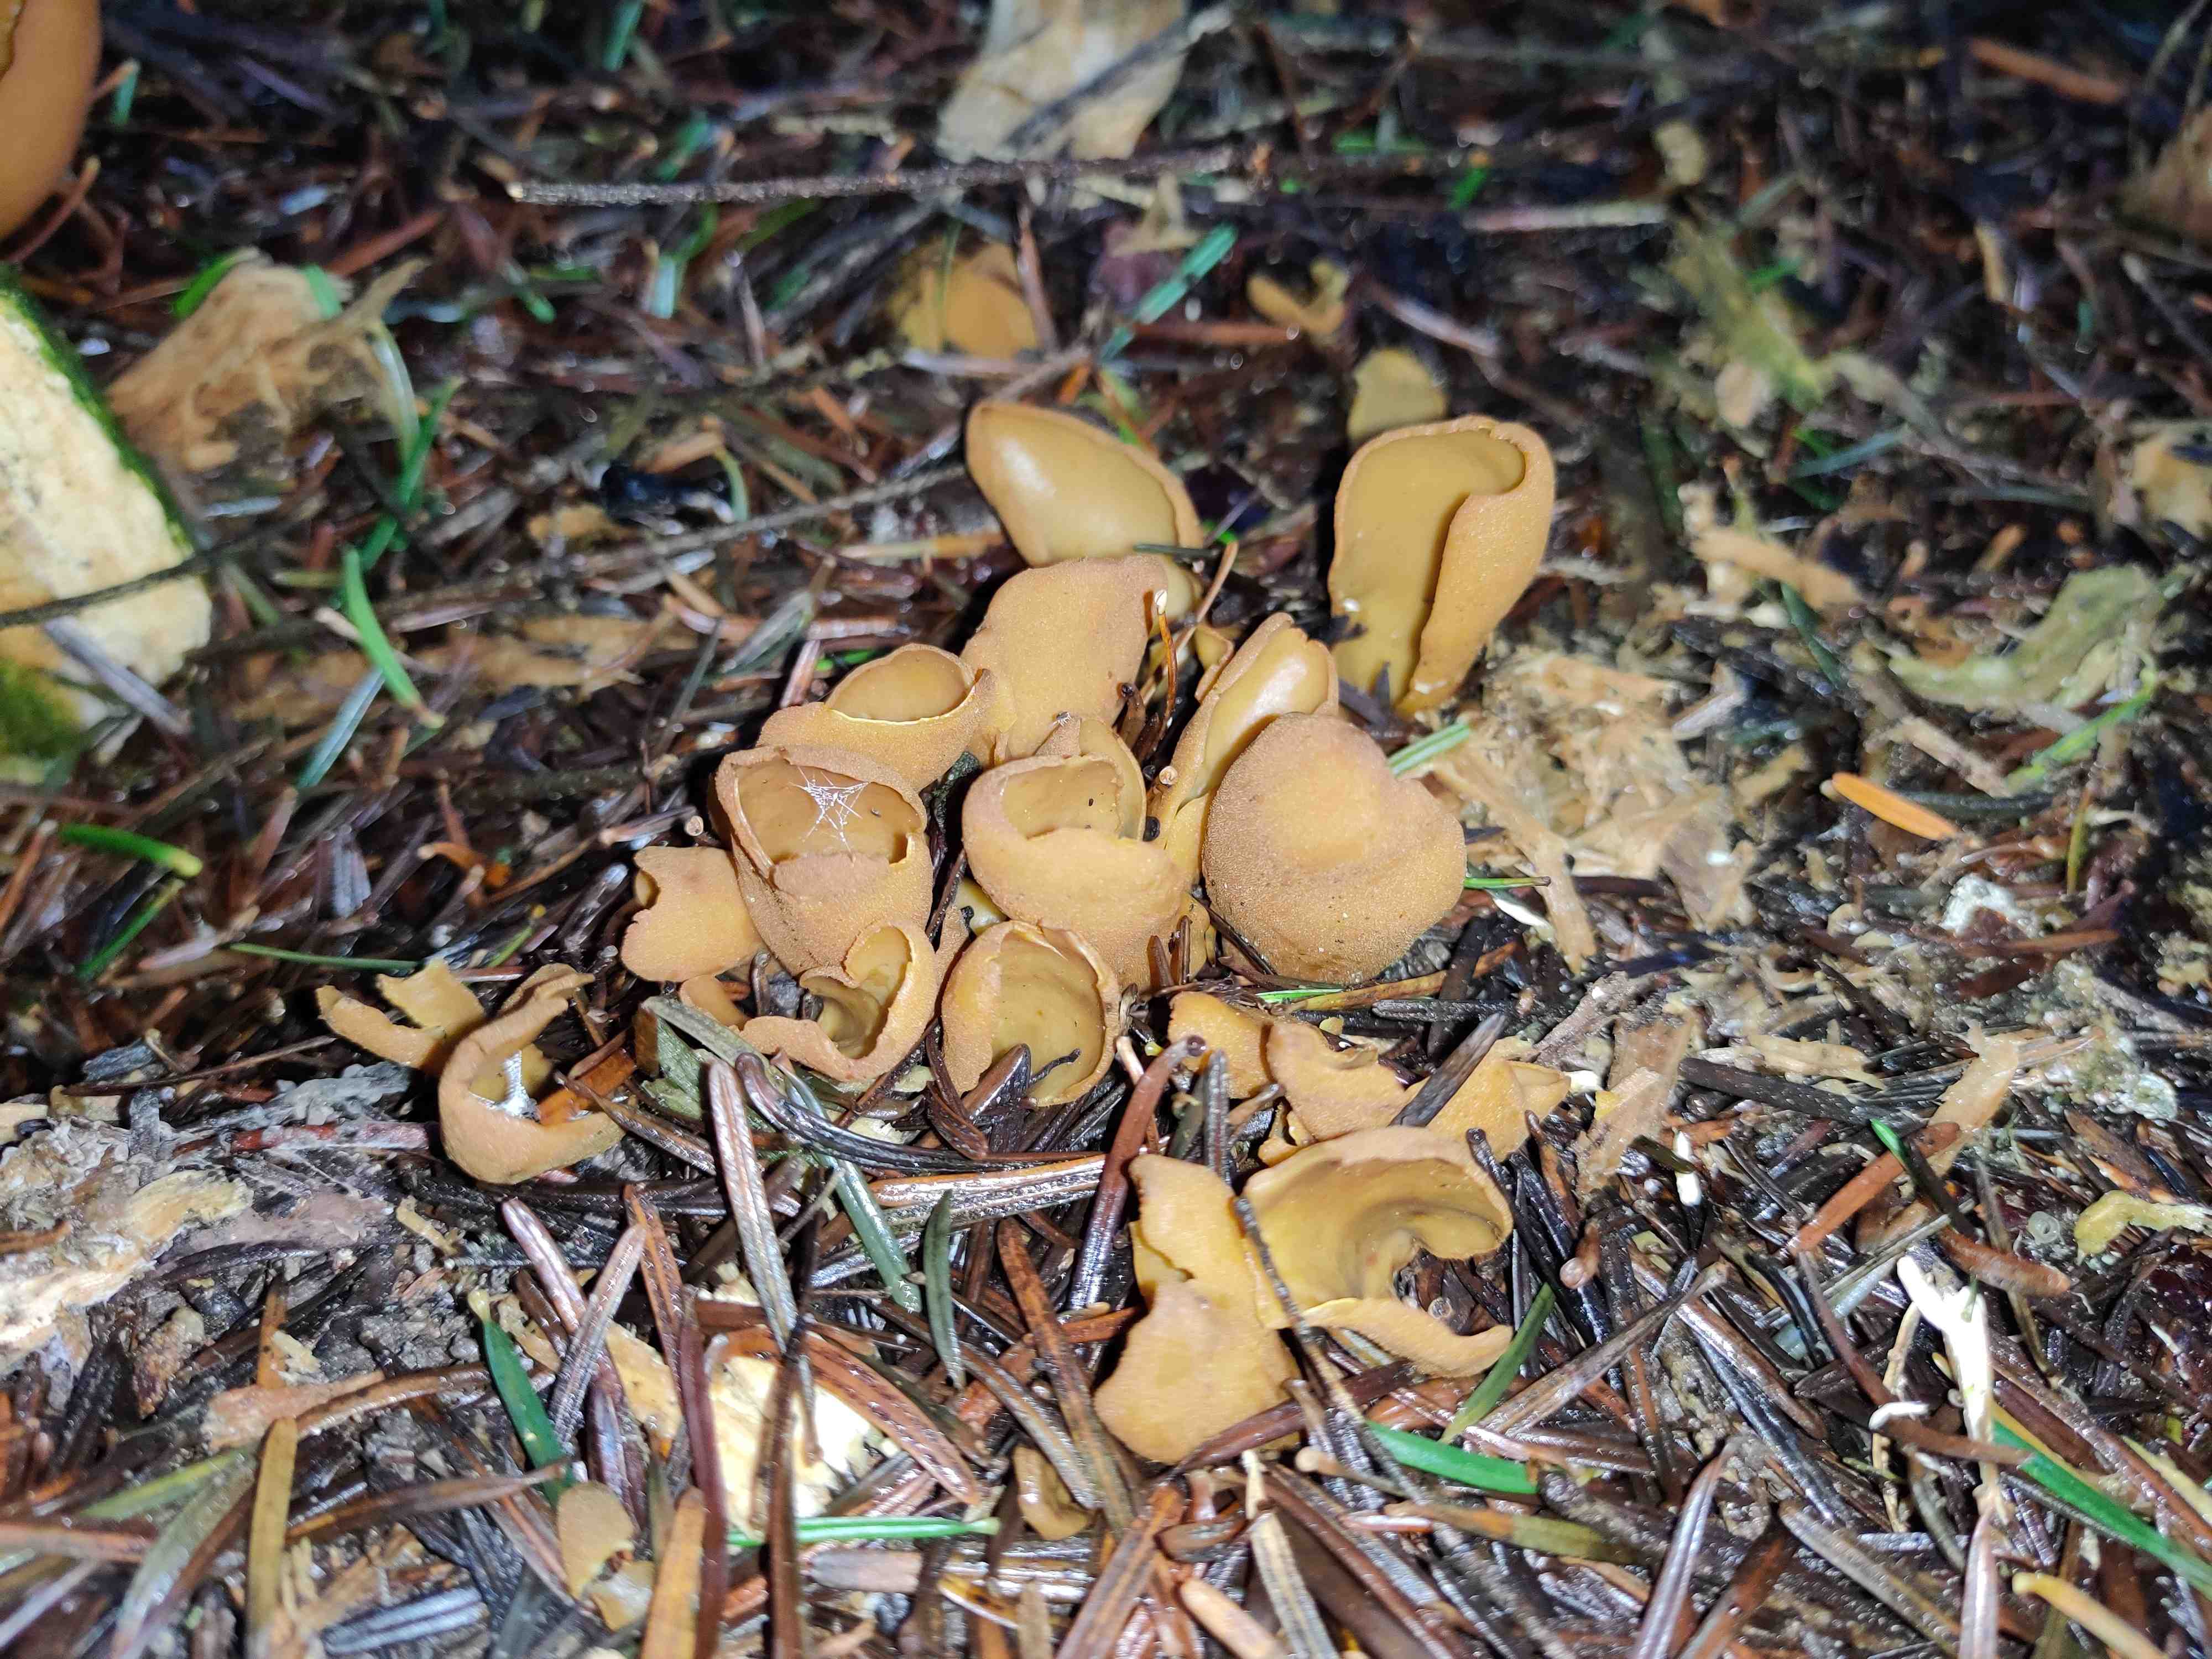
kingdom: Fungi
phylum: Ascomycota
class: Pezizomycetes
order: Pezizales
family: Otideaceae
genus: Otidea
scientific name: Otidea
